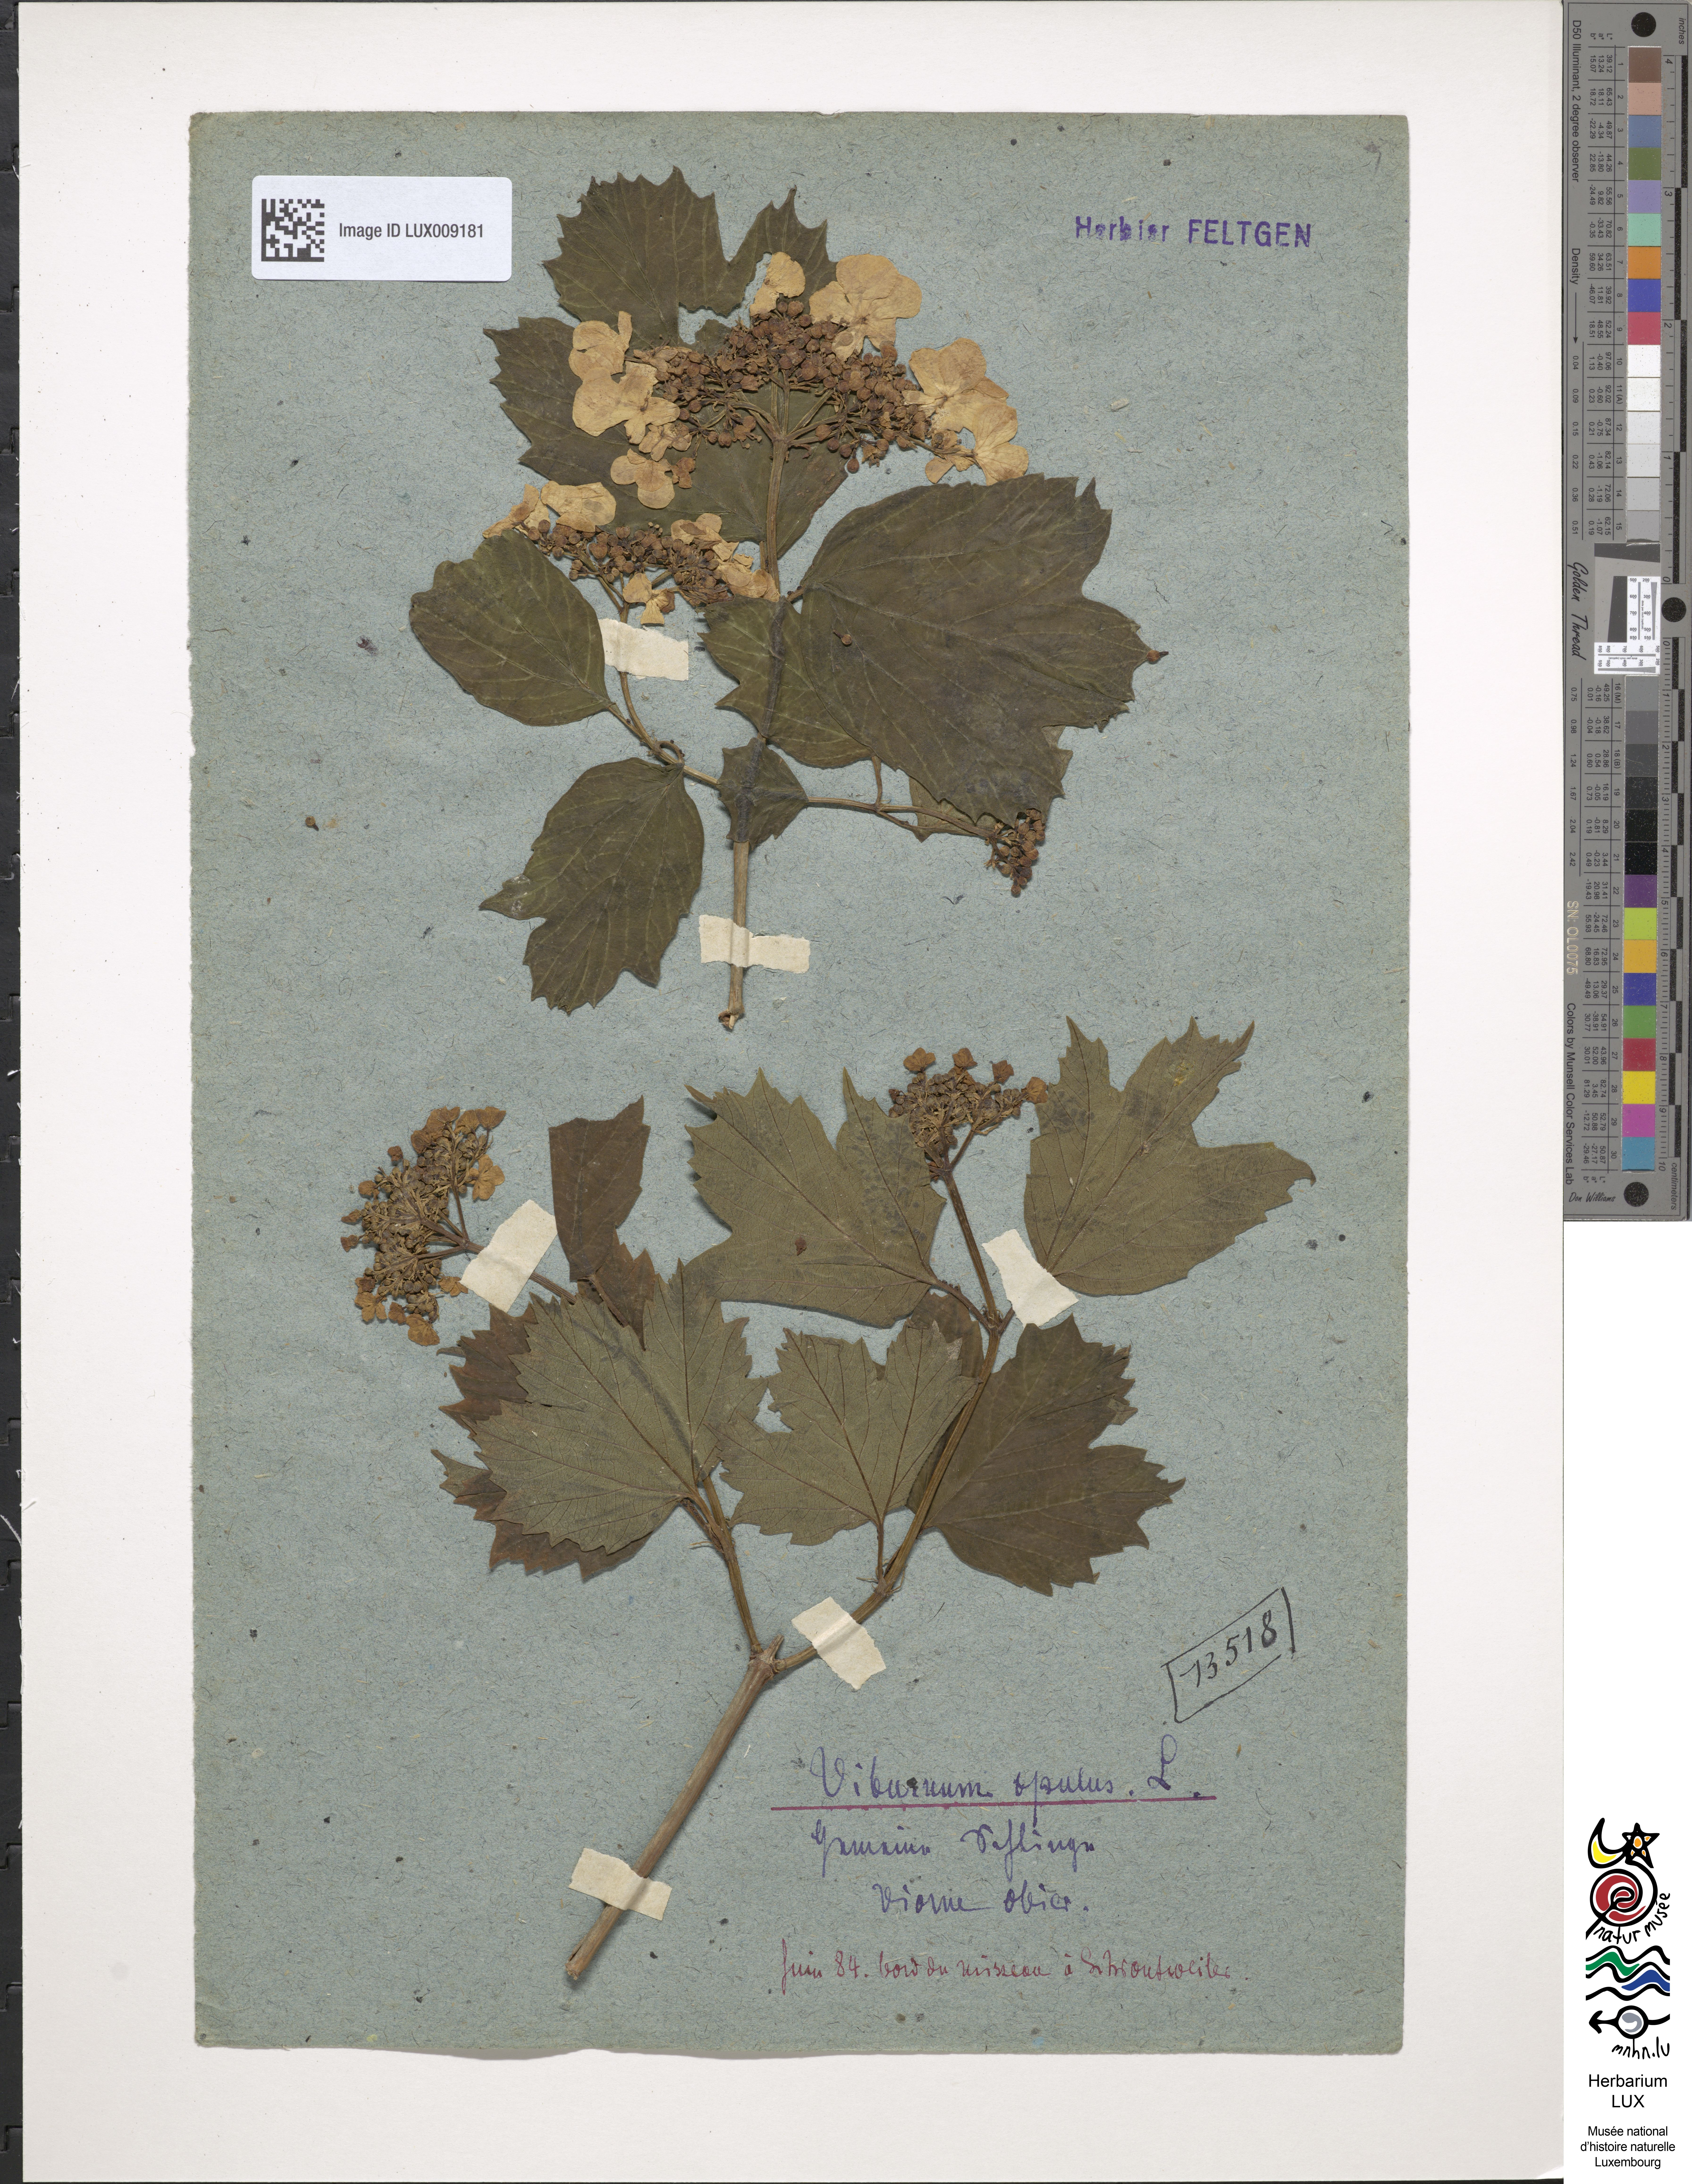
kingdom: Plantae
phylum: Tracheophyta
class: Magnoliopsida
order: Dipsacales
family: Viburnaceae
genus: Viburnum
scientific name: Viburnum opulus
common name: Guelder-rose
